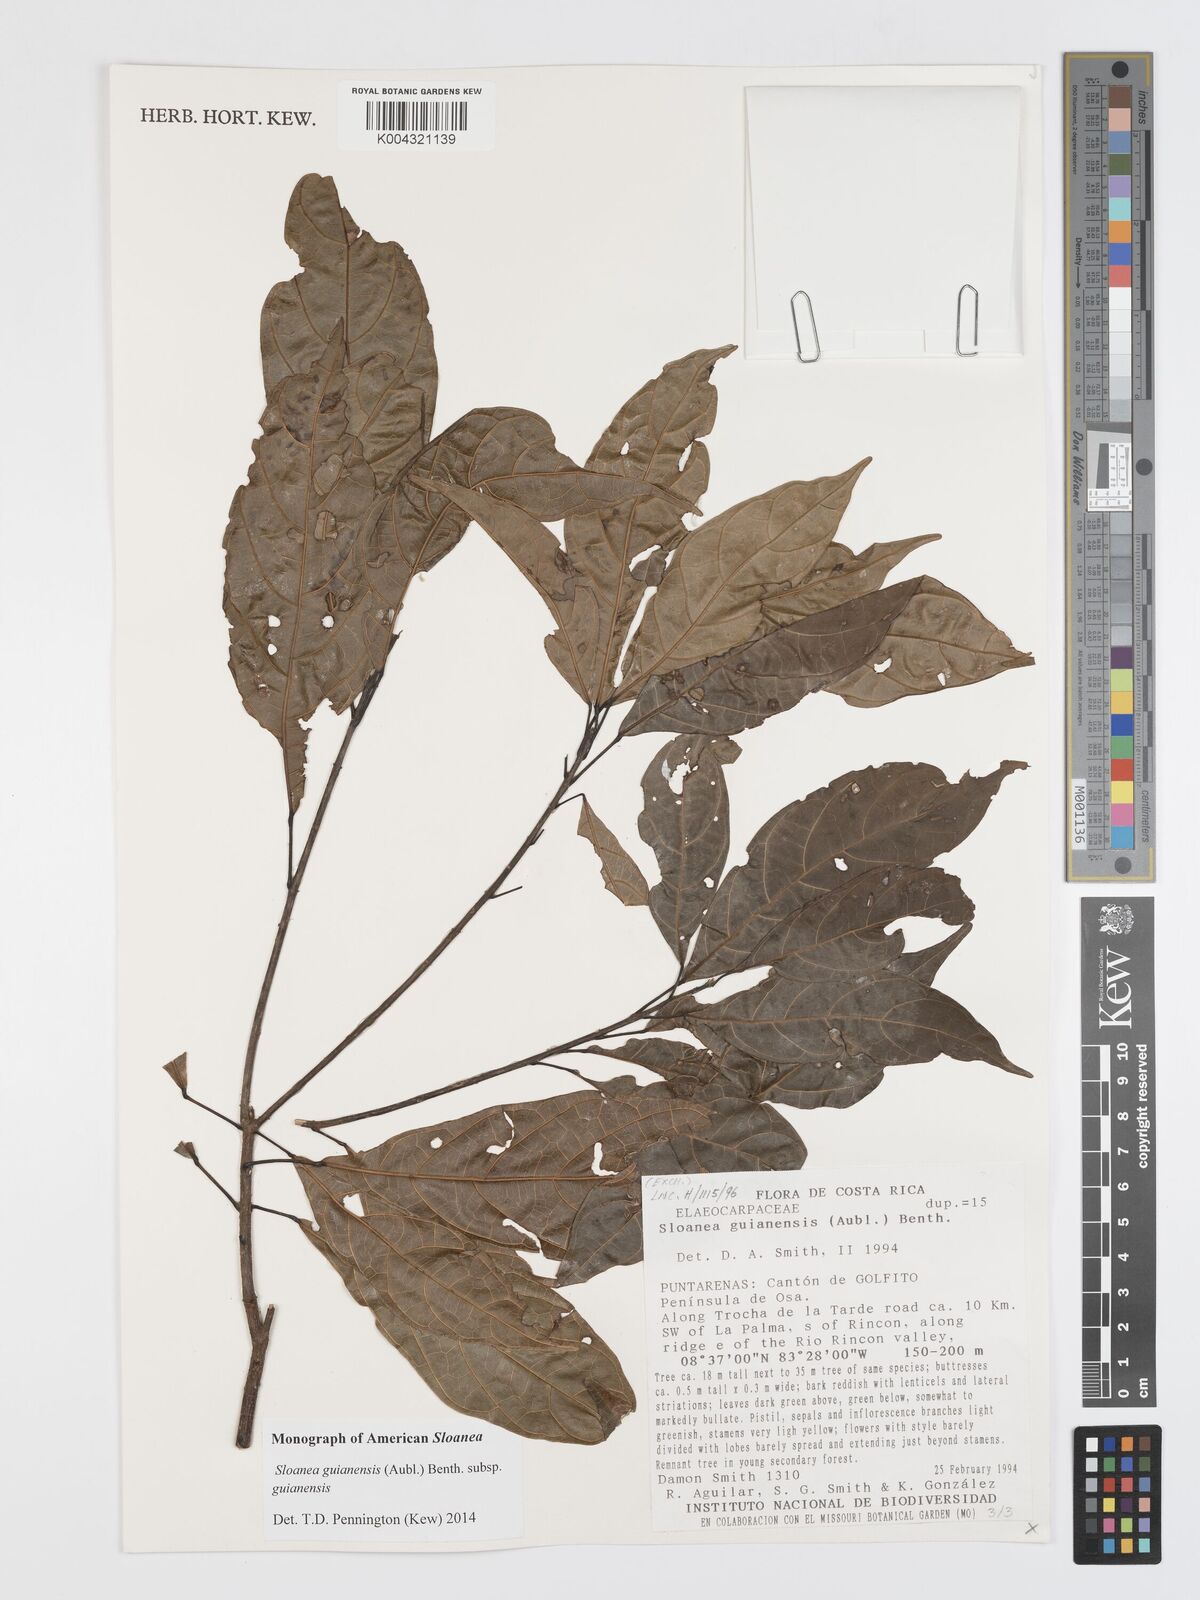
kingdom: Plantae
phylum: Tracheophyta
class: Magnoliopsida
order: Oxalidales
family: Elaeocarpaceae
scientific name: Elaeocarpaceae
